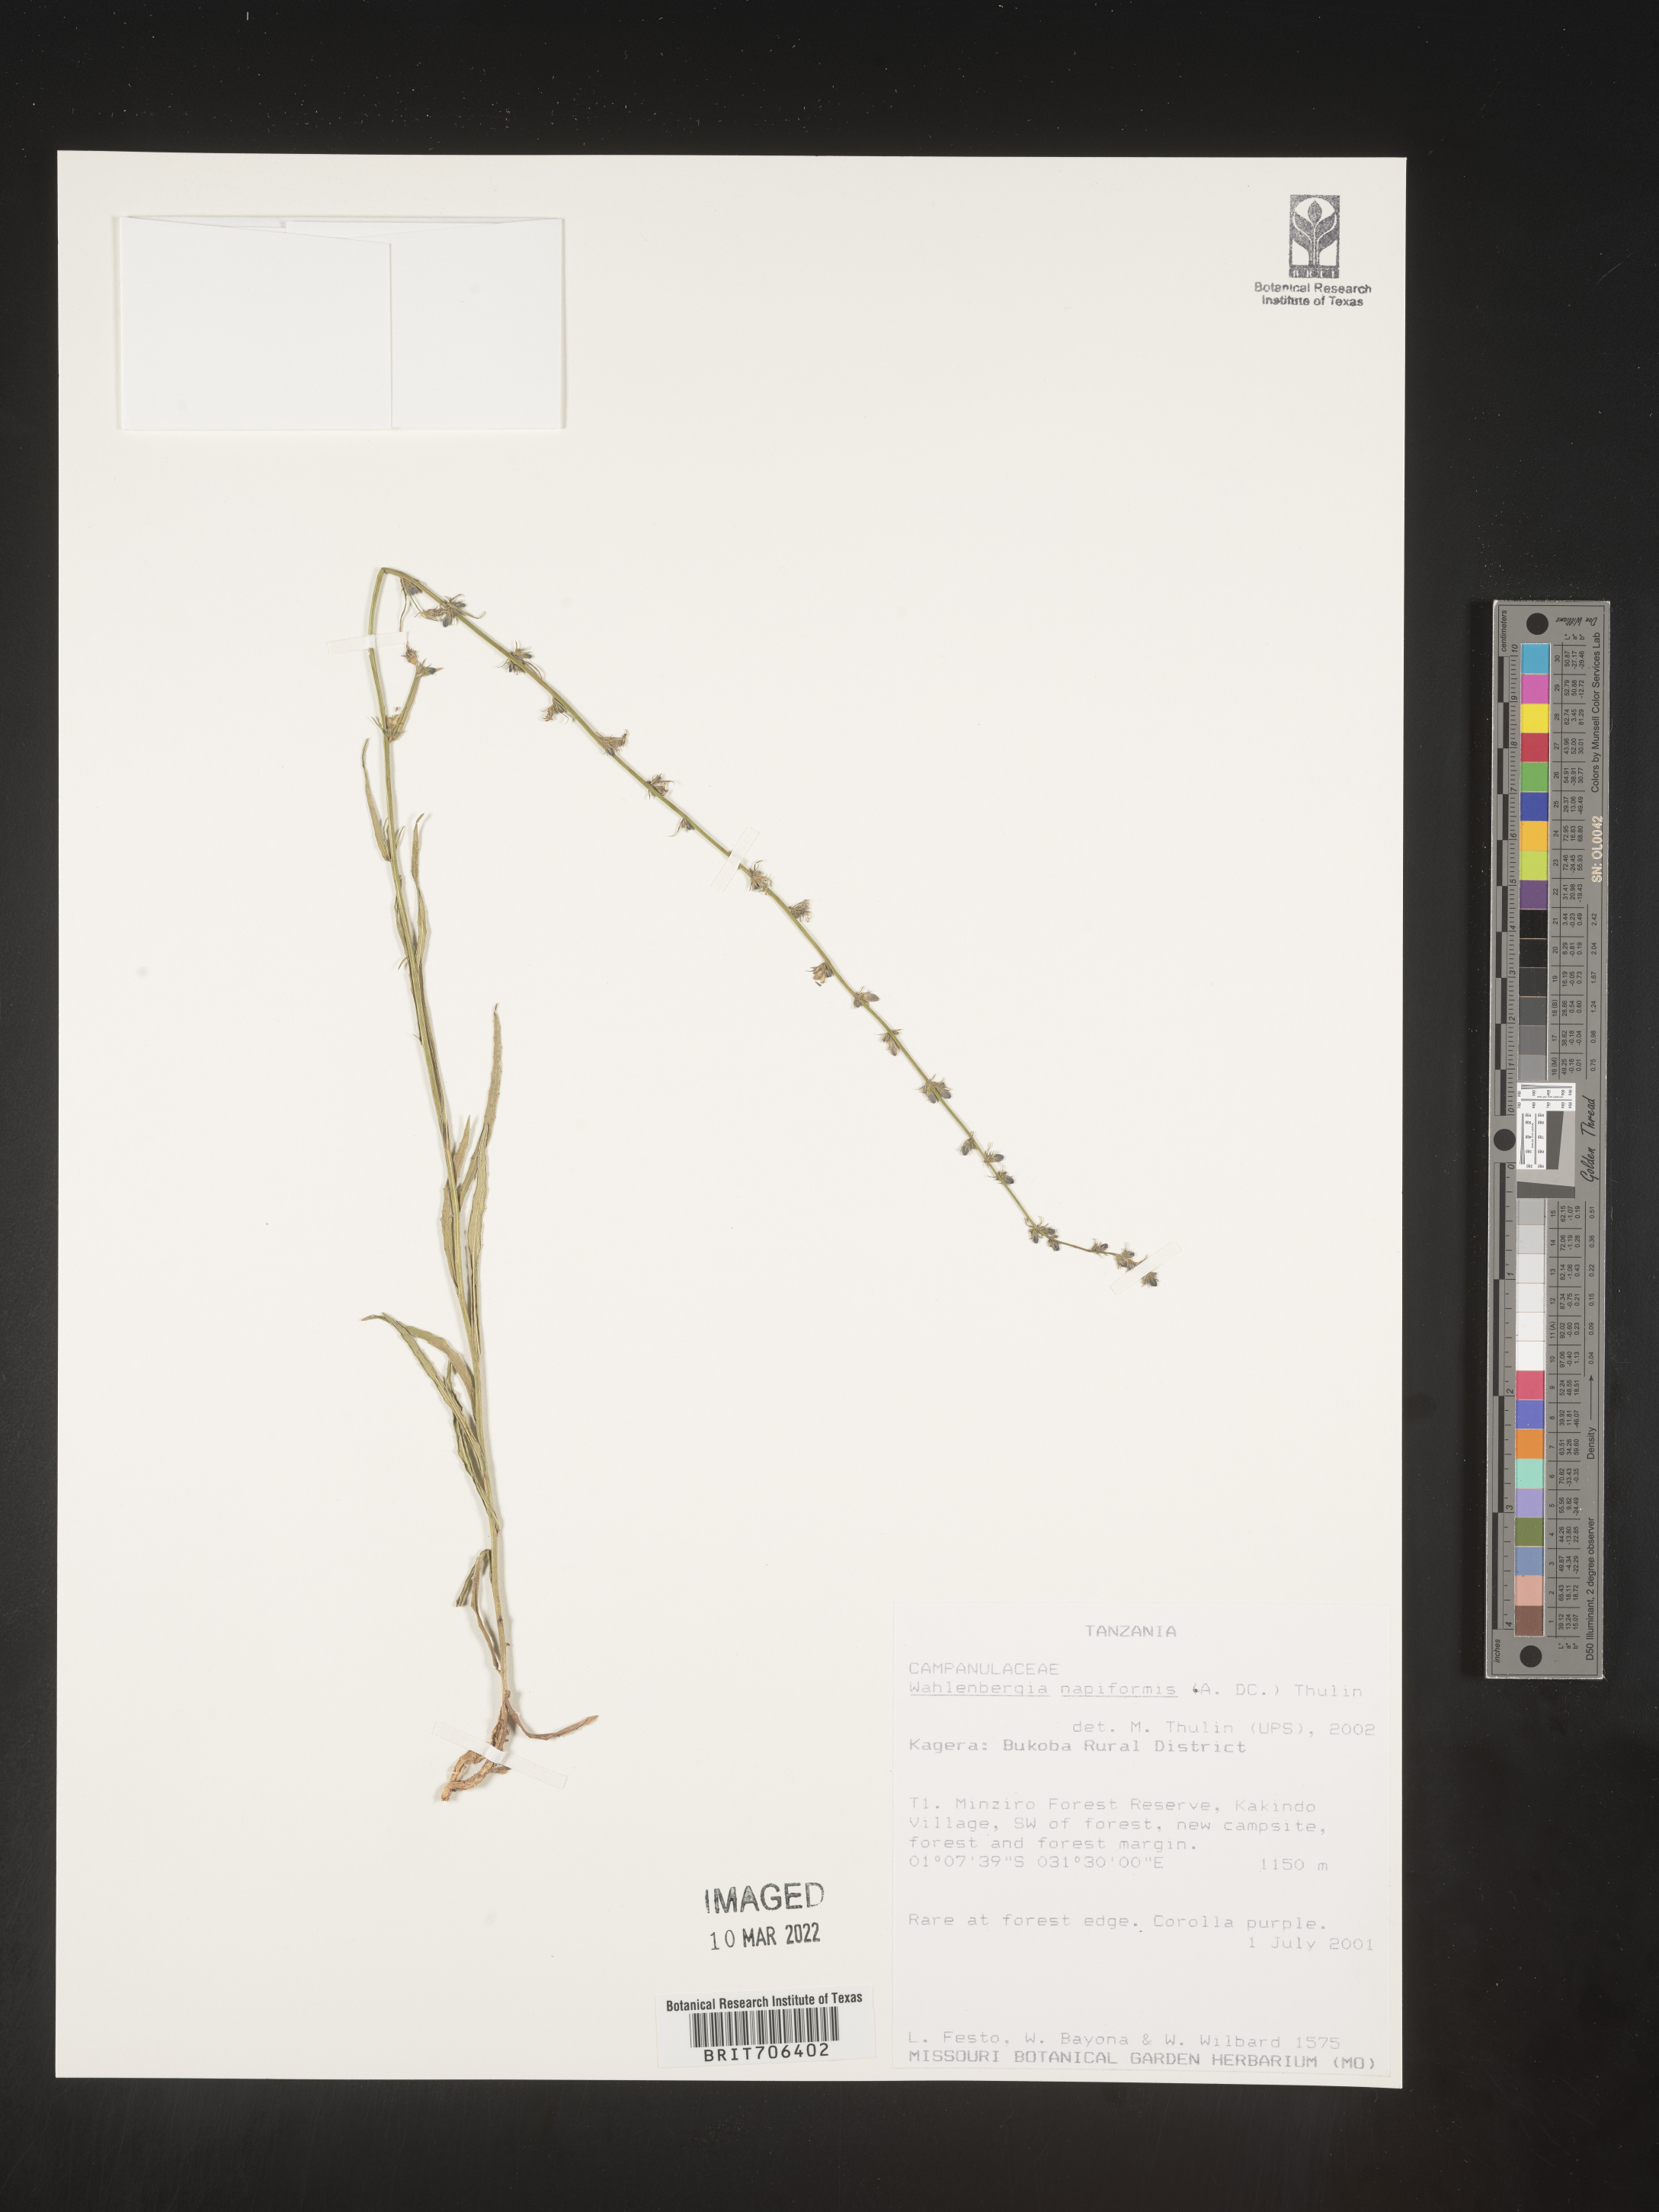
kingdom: Plantae
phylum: Tracheophyta
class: Magnoliopsida
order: Asterales
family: Campanulaceae
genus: Wahlenbergia
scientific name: Wahlenbergia
